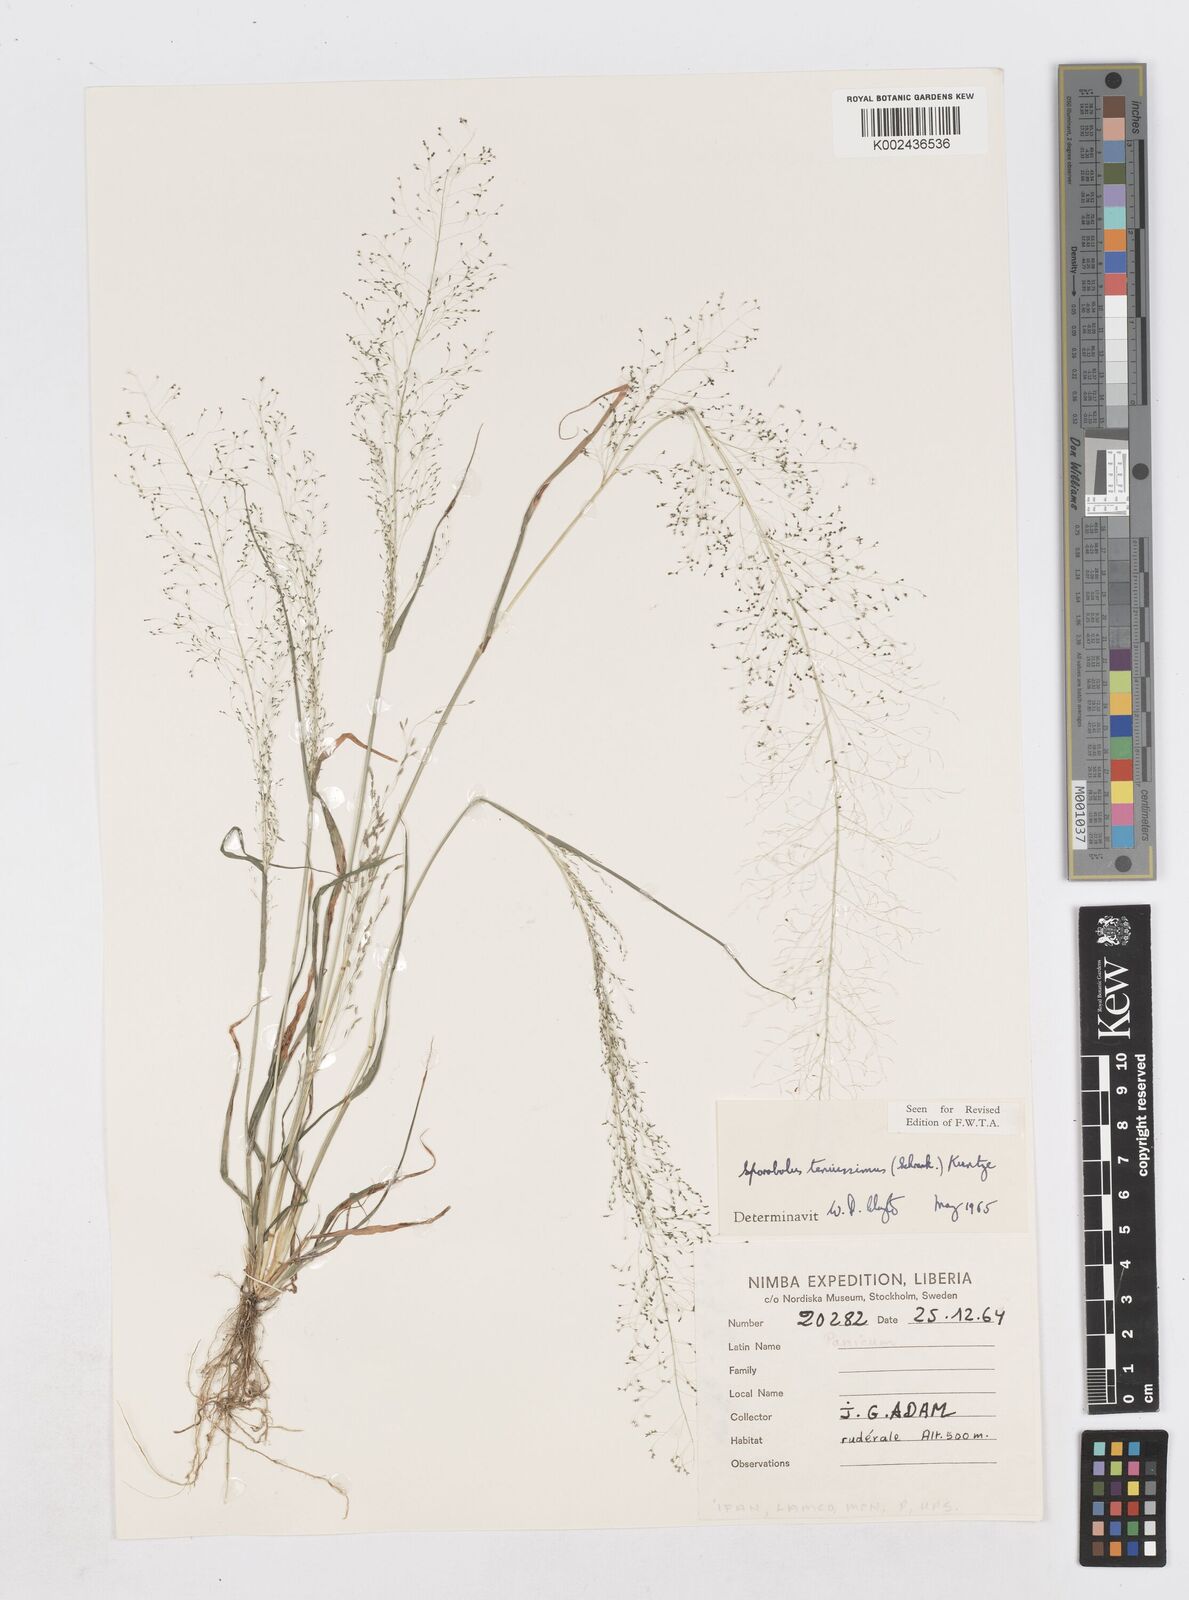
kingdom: Plantae
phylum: Tracheophyta
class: Liliopsida
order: Poales
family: Poaceae
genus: Sporobolus
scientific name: Sporobolus tenuissimus
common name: Tropical dropseed
